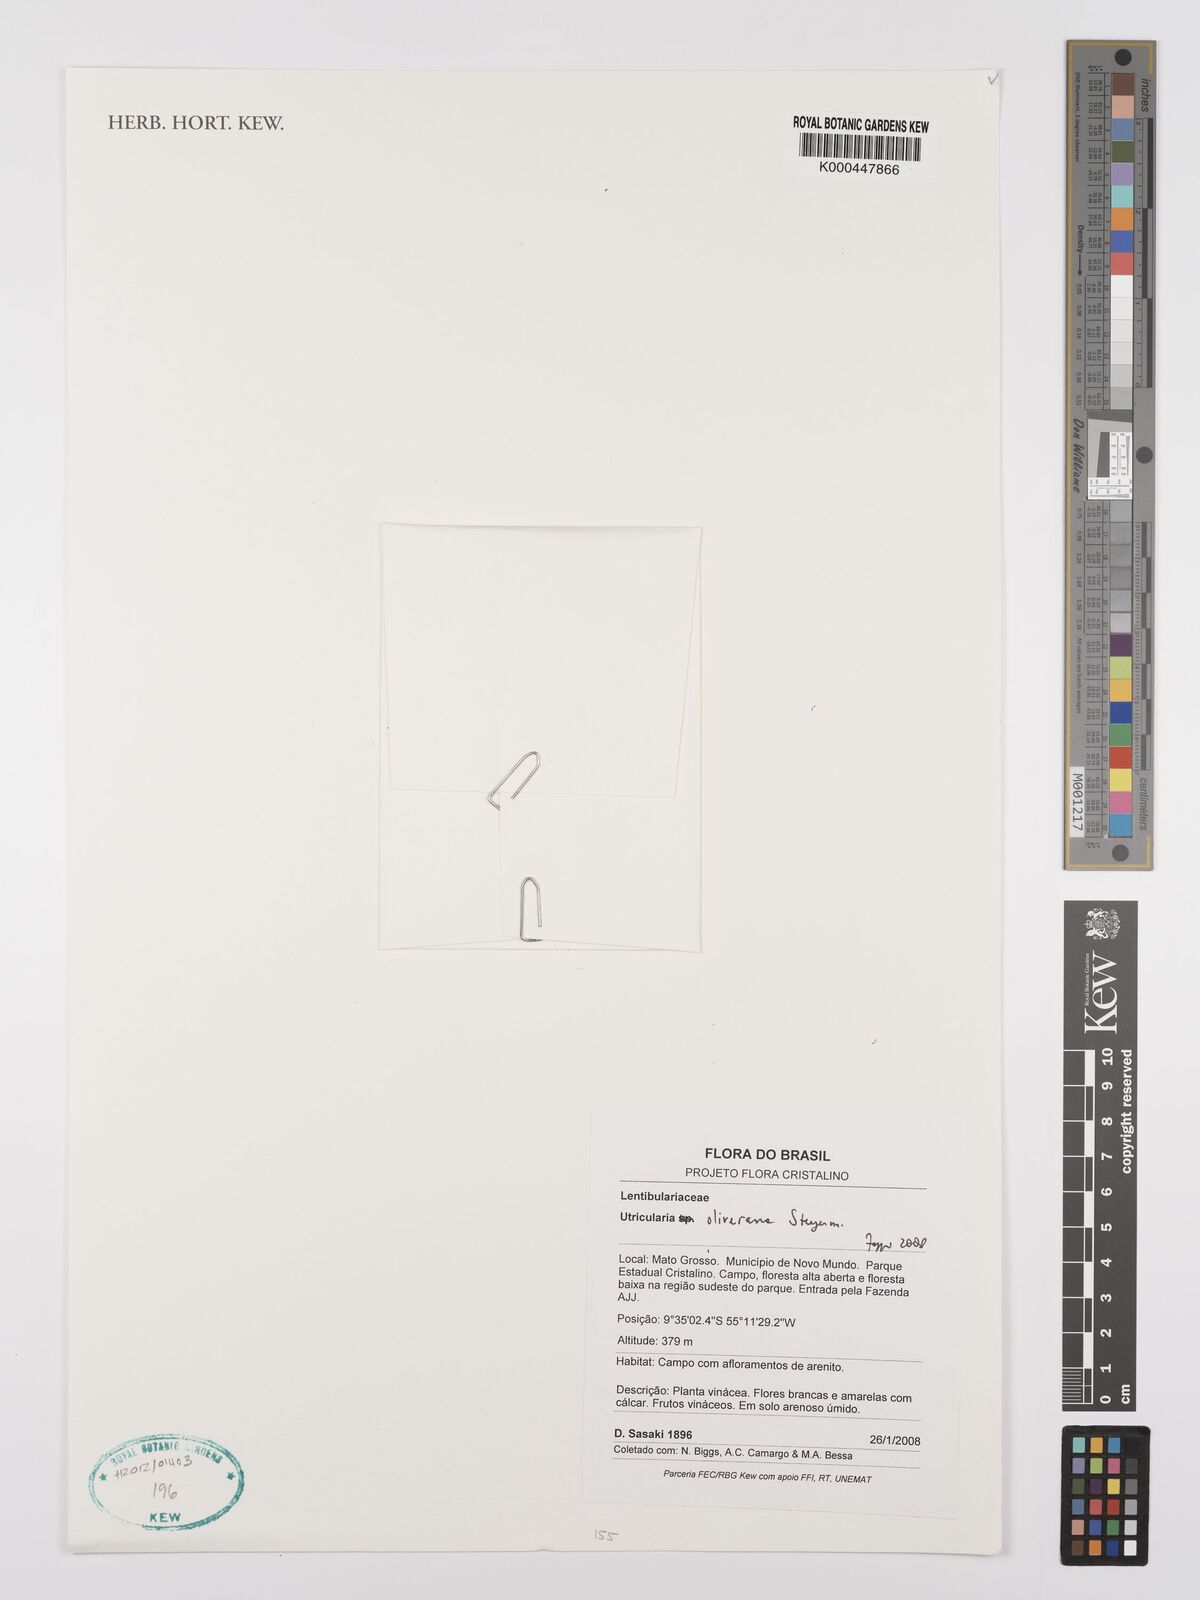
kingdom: Plantae
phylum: Tracheophyta
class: Magnoliopsida
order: Lamiales
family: Lentibulariaceae
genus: Utricularia
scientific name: Utricularia oliveriana
